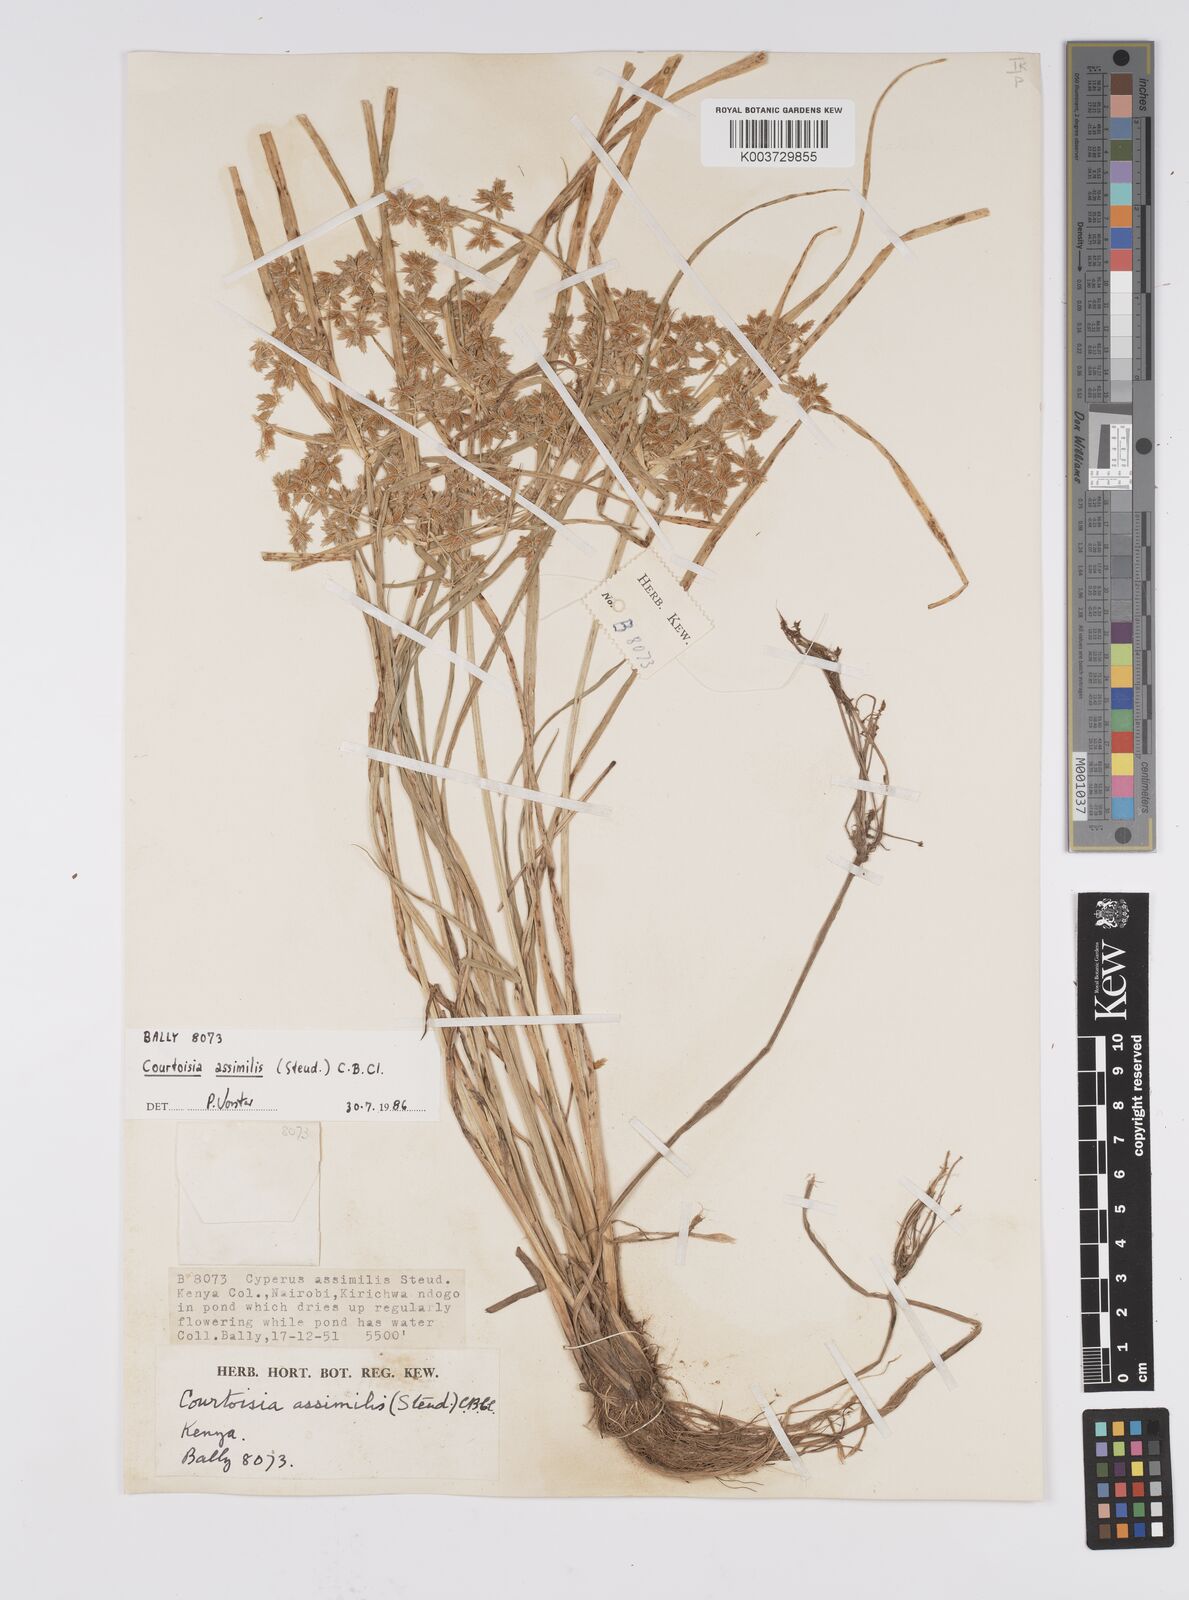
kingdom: Plantae
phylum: Tracheophyta
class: Liliopsida
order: Poales
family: Cyperaceae
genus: Cyperus
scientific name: Cyperus assimilis
